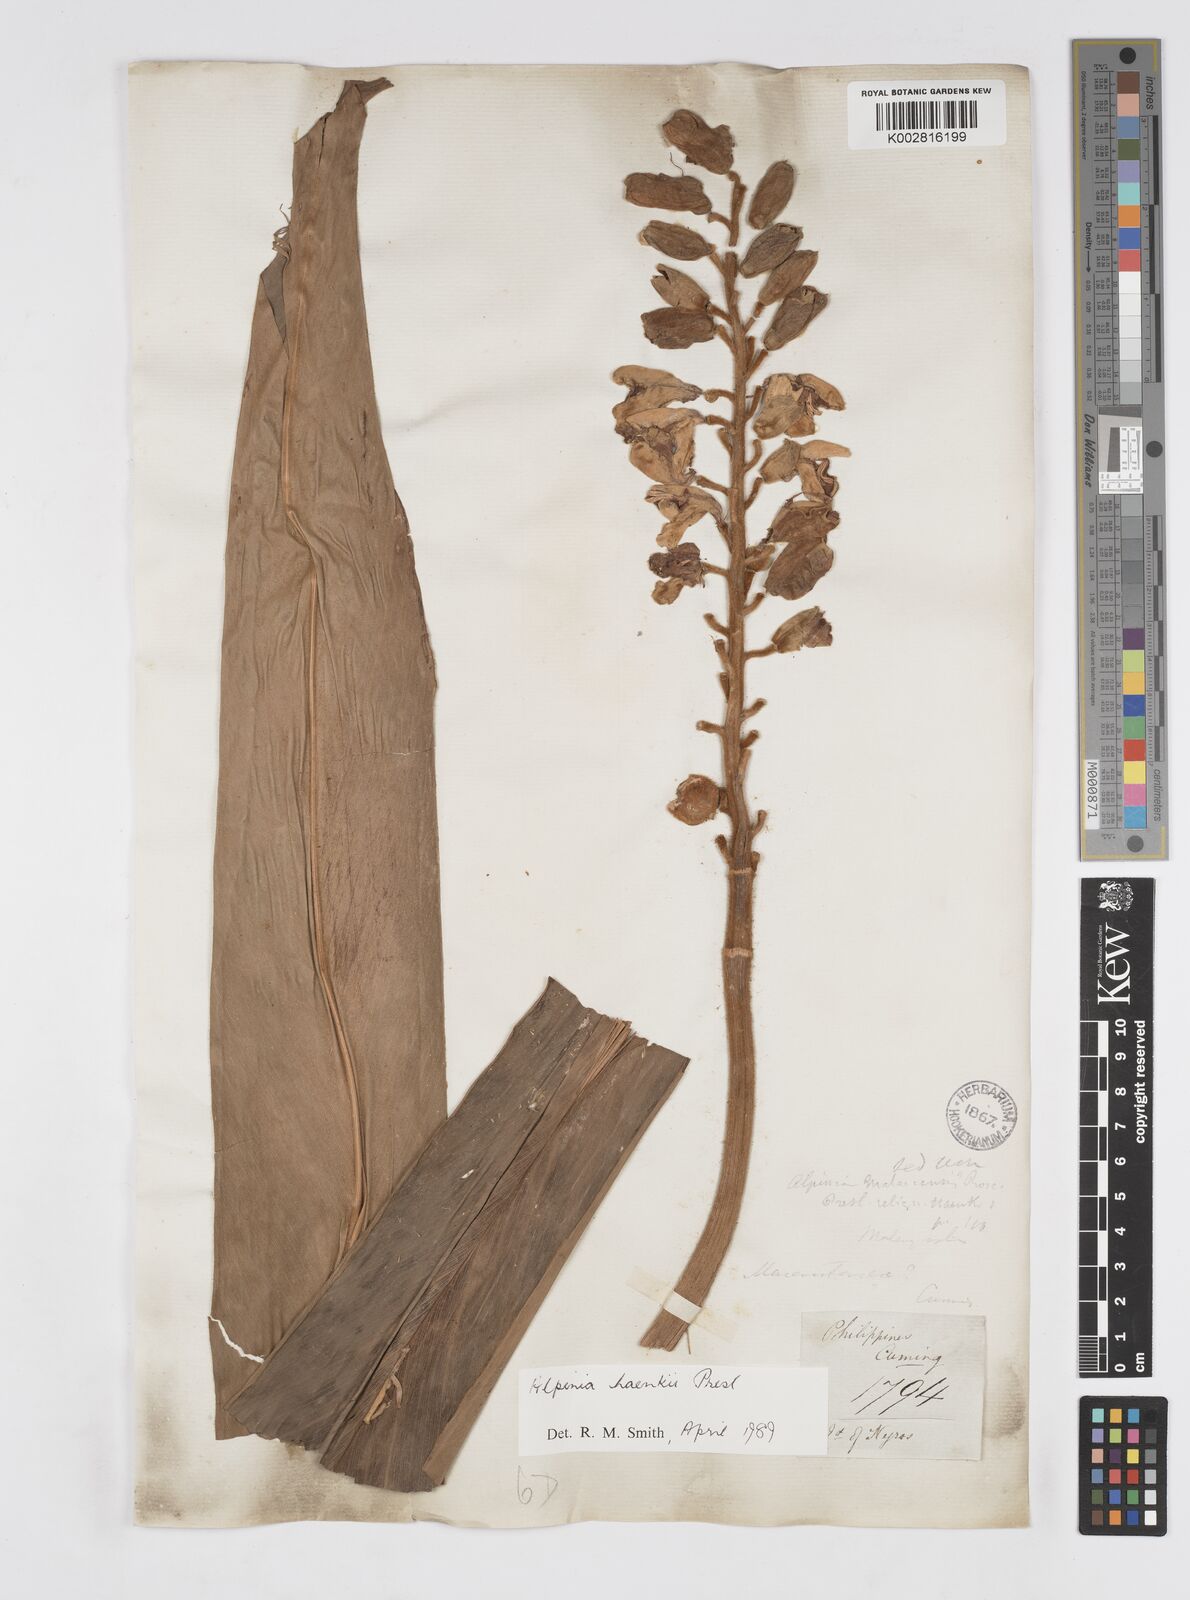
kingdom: Plantae
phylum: Tracheophyta
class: Liliopsida
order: Zingiberales
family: Zingiberaceae
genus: Alpinia
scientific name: Alpinia haenkei
